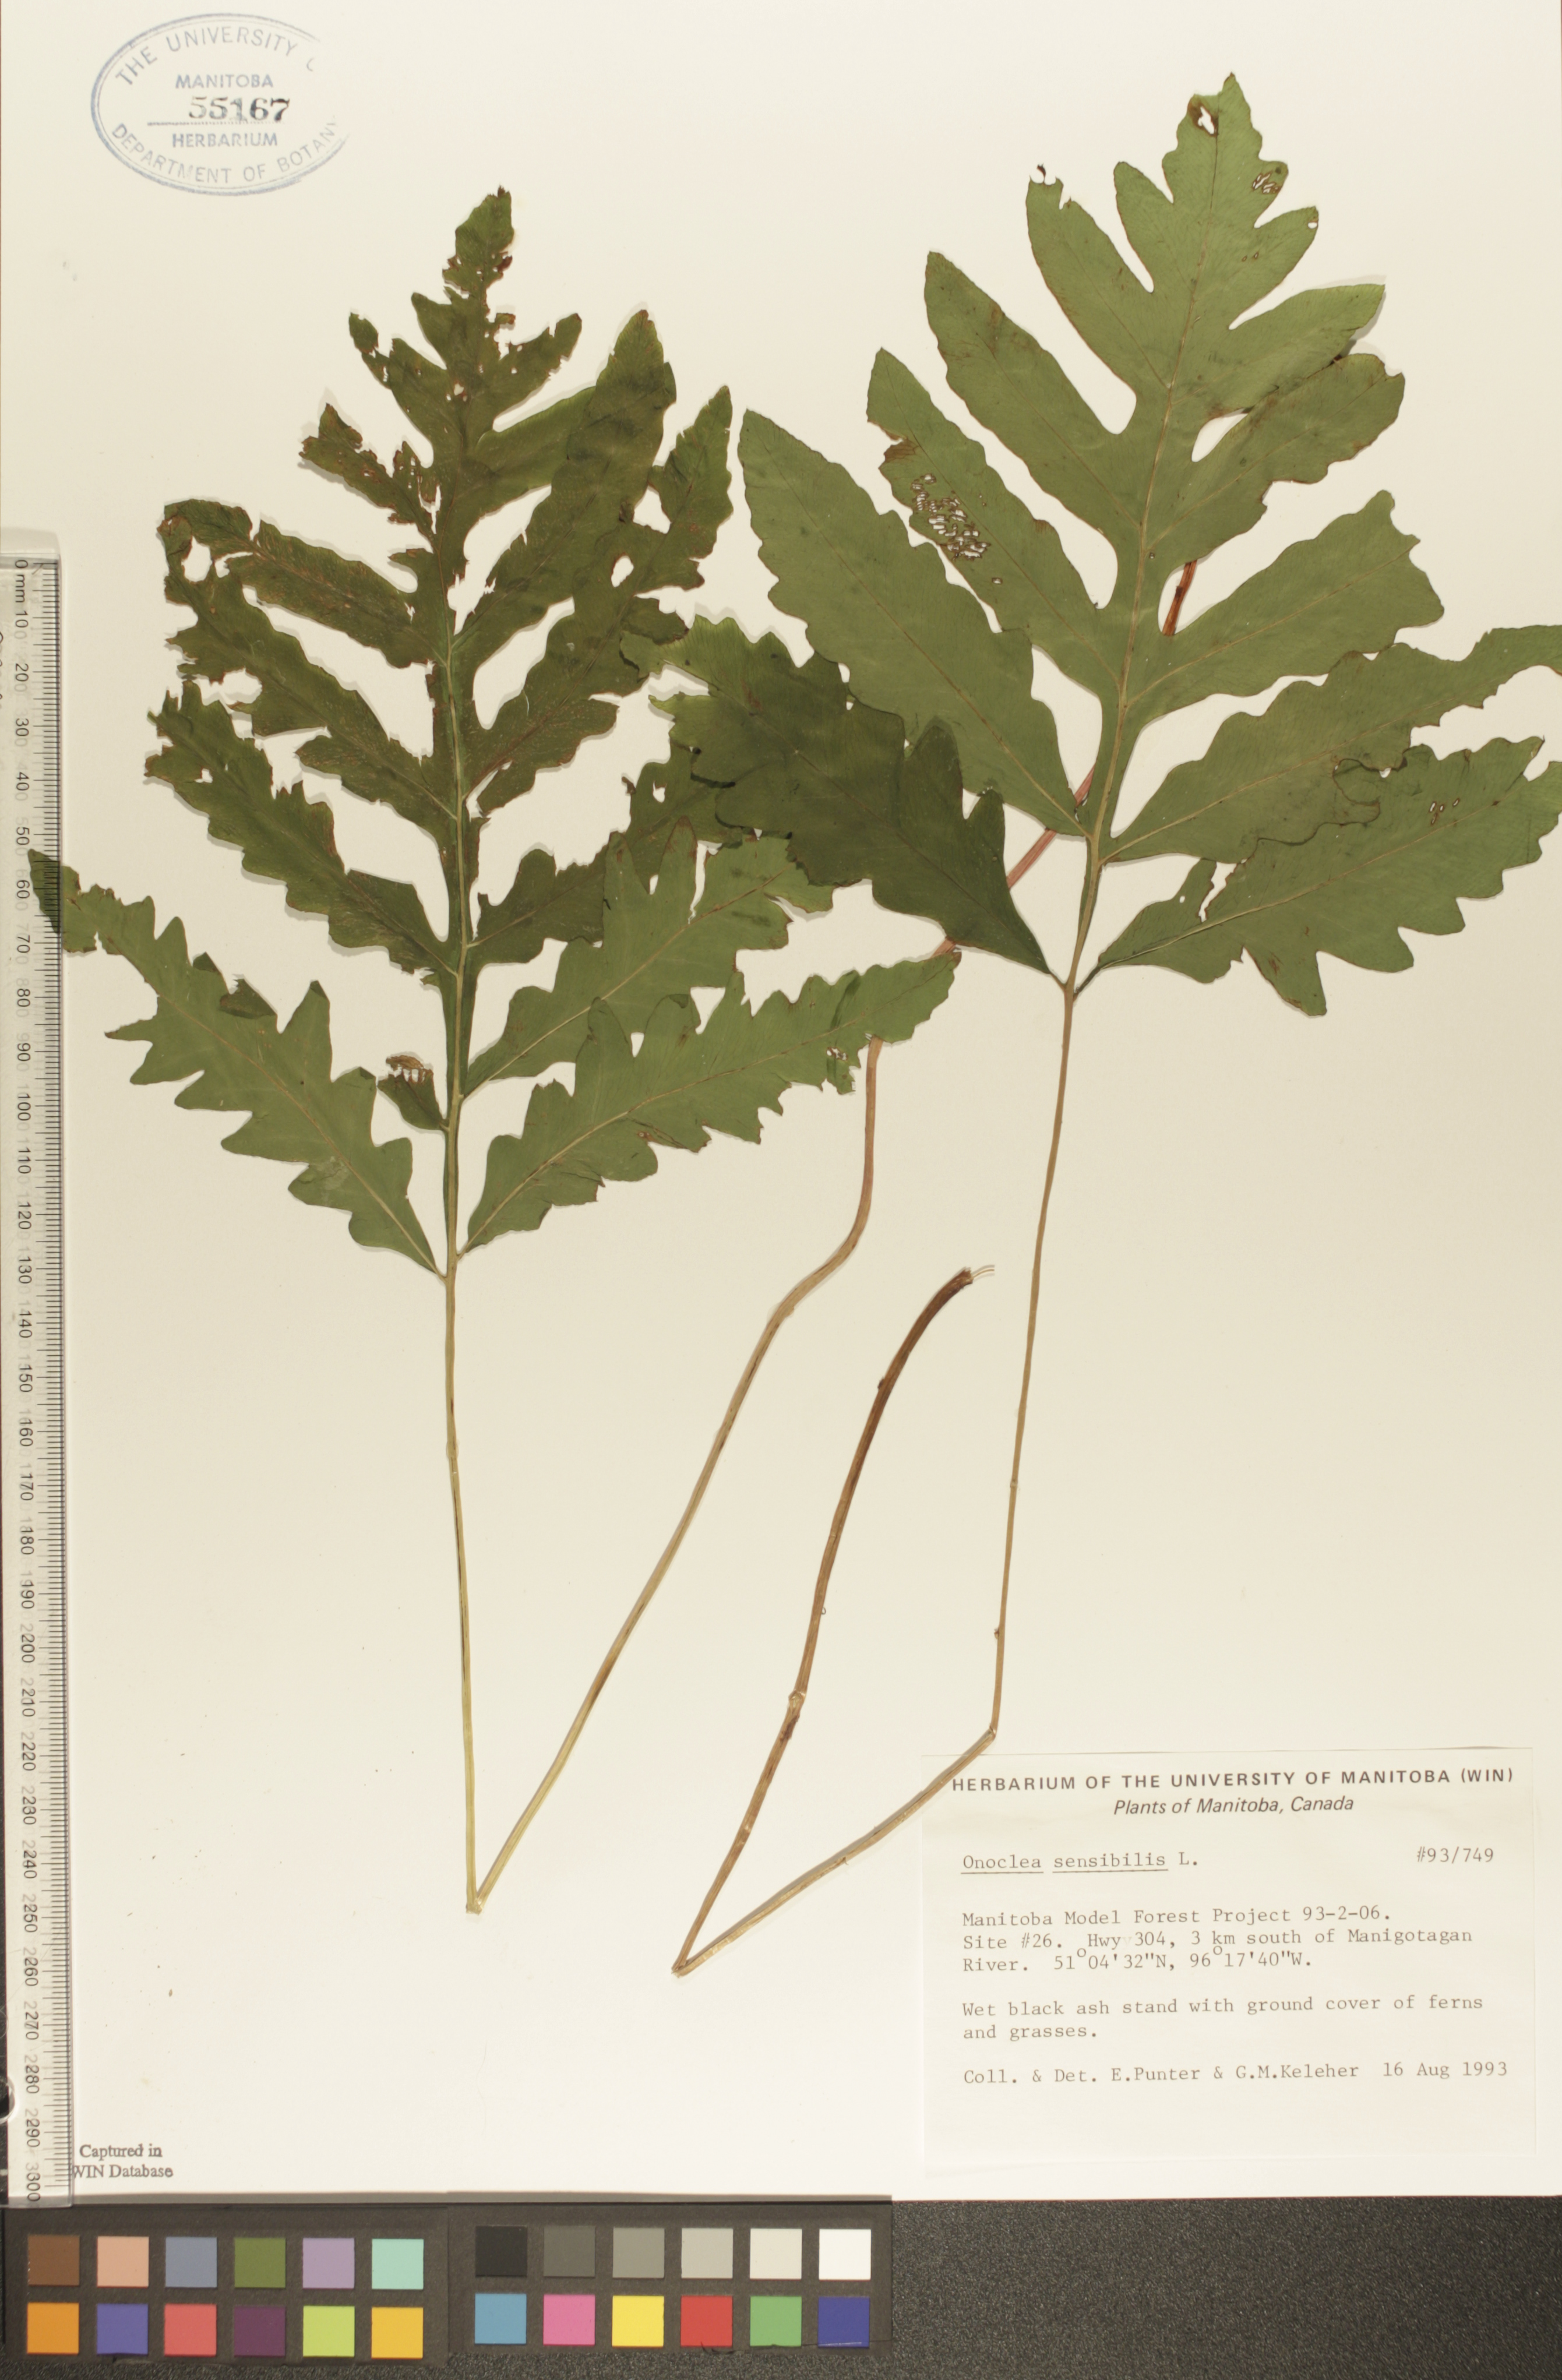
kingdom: Plantae
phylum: Tracheophyta
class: Polypodiopsida
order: Polypodiales
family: Onocleaceae
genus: Onoclea
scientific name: Onoclea sensibilis
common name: Sensitive fern
